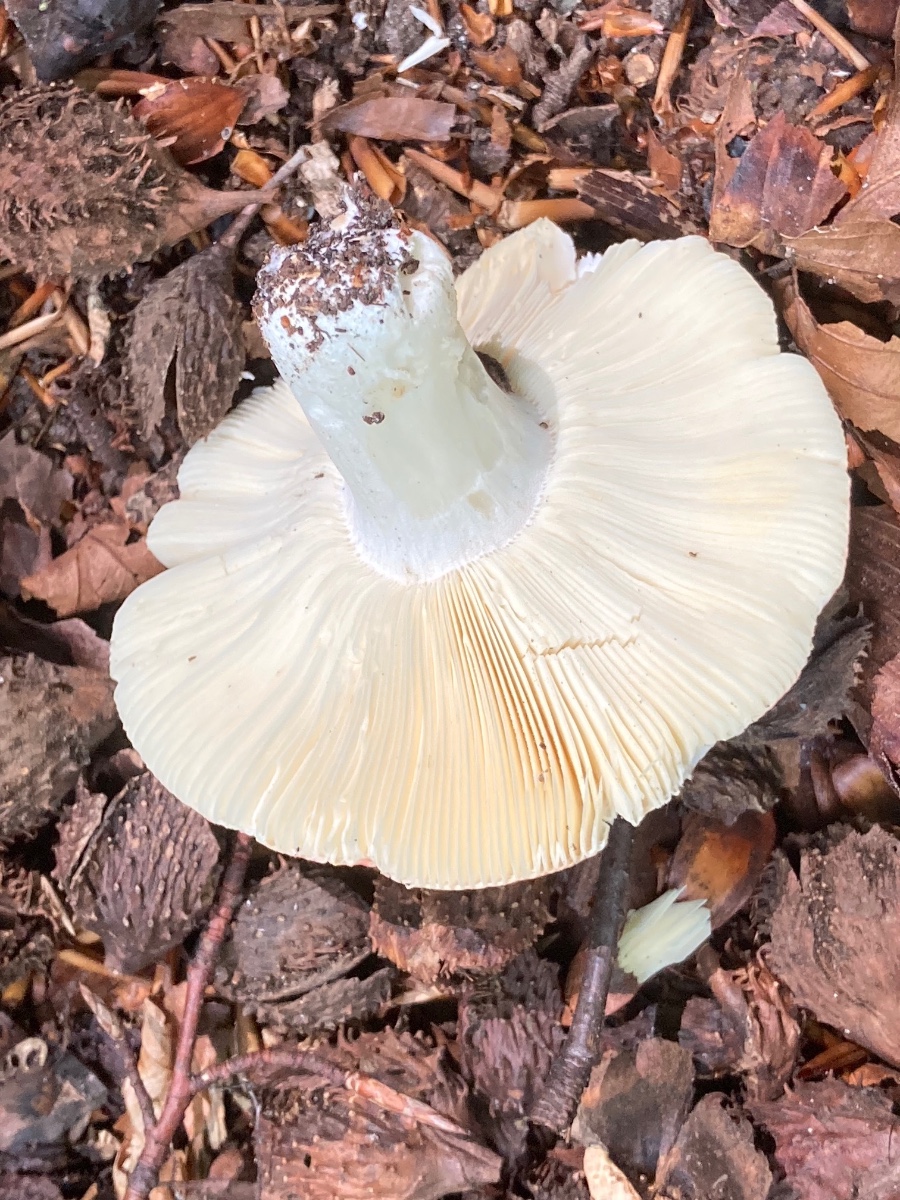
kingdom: Fungi
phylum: Basidiomycota
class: Agaricomycetes
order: Russulales
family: Russulaceae
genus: Russula
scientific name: Russula curtipes
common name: kortstokket skørhat
